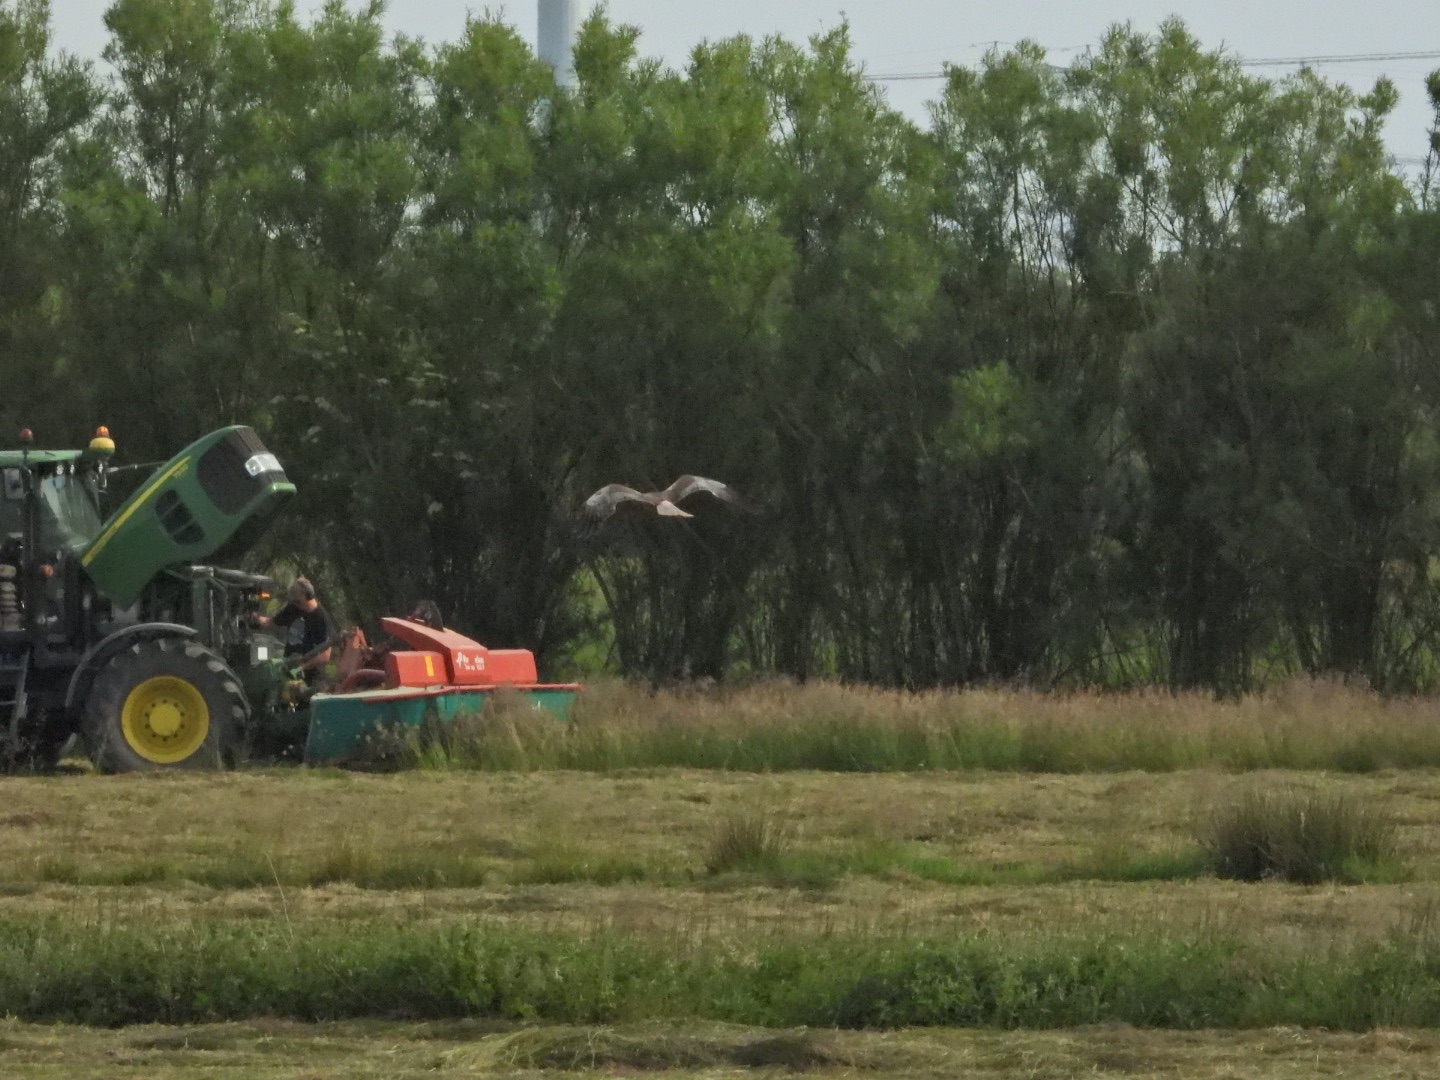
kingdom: Animalia
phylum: Chordata
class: Aves
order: Accipitriformes
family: Accipitridae
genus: Circus
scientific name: Circus aeruginosus
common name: Rørhøg
